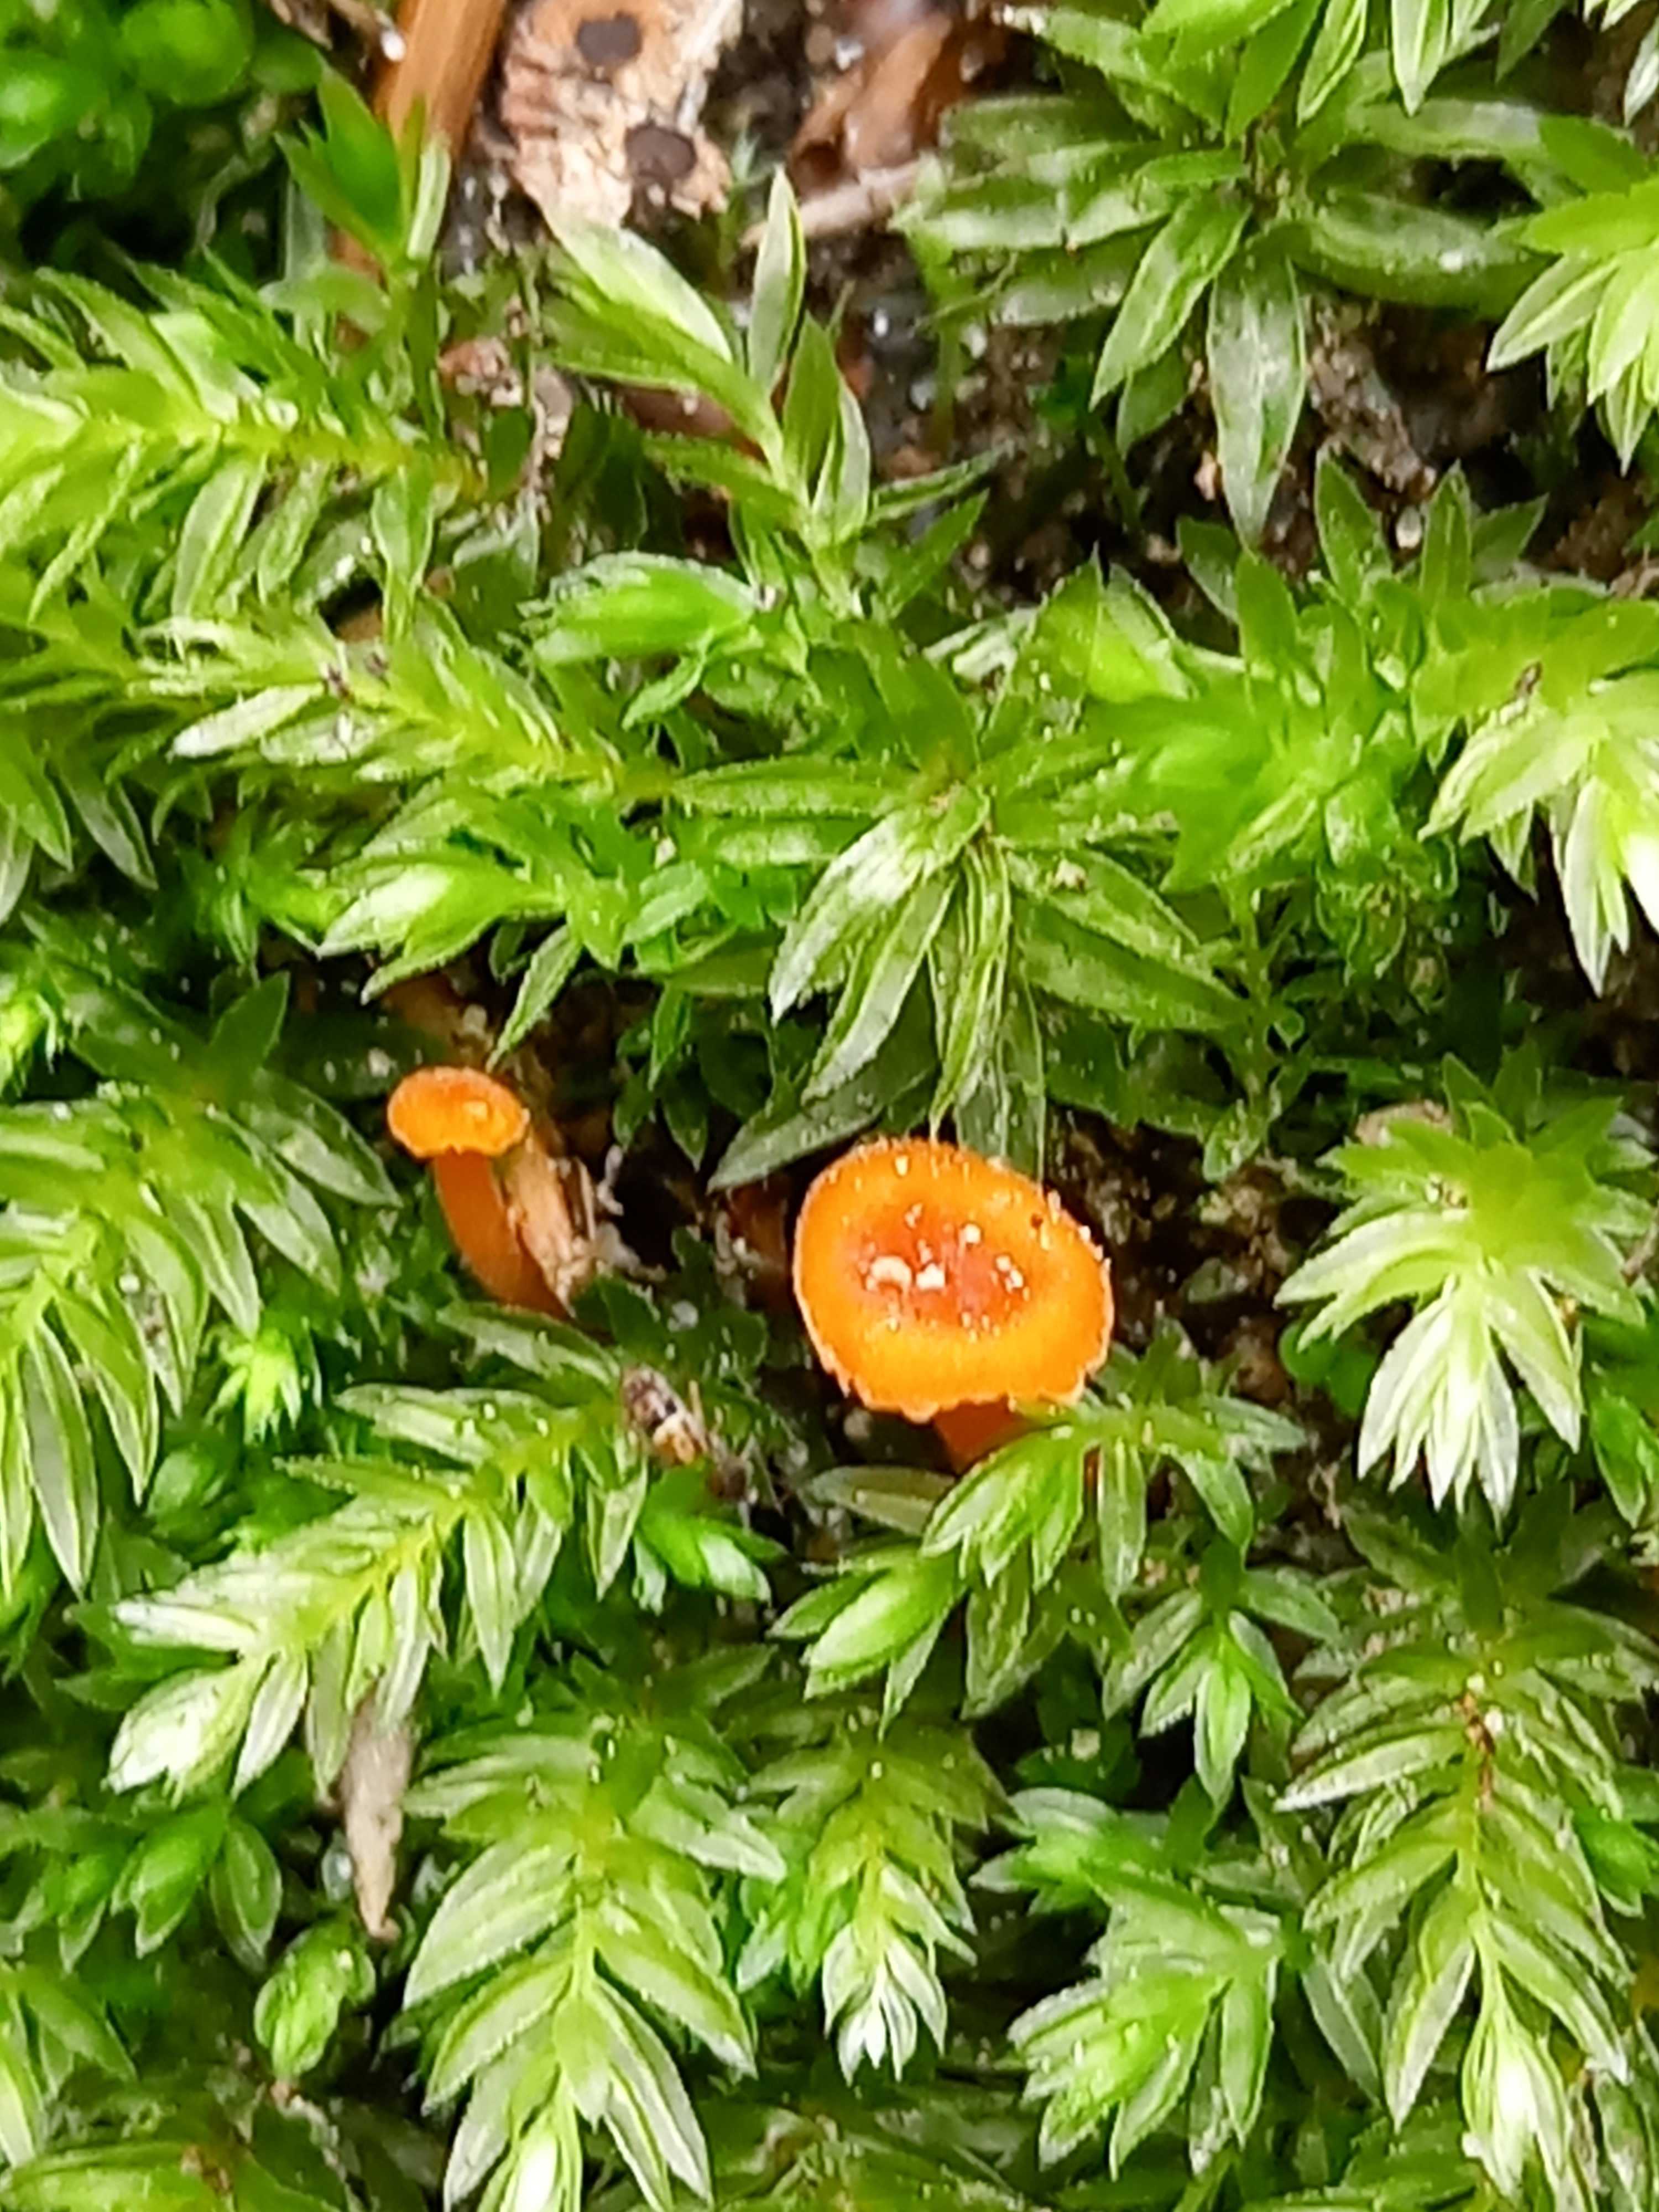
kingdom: Fungi
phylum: Basidiomycota
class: Agaricomycetes
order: Hymenochaetales
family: Rickenellaceae
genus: Rickenella
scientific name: Rickenella fibula
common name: orange mosnavlehat
